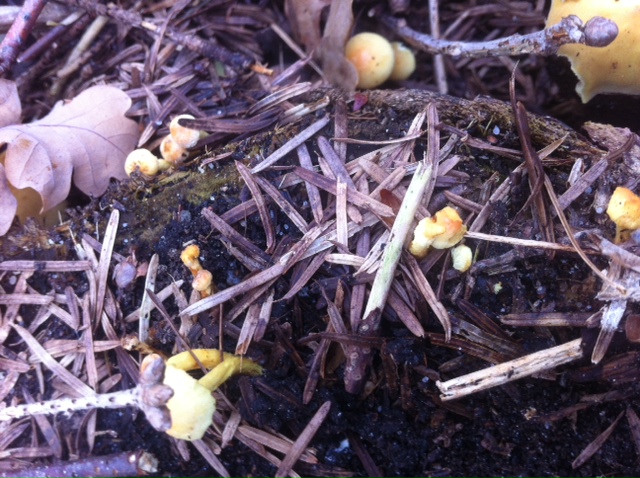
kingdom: Fungi
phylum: Basidiomycota
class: Agaricomycetes
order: Agaricales
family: Strophariaceae
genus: Hypholoma
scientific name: Hypholoma fasciculare
